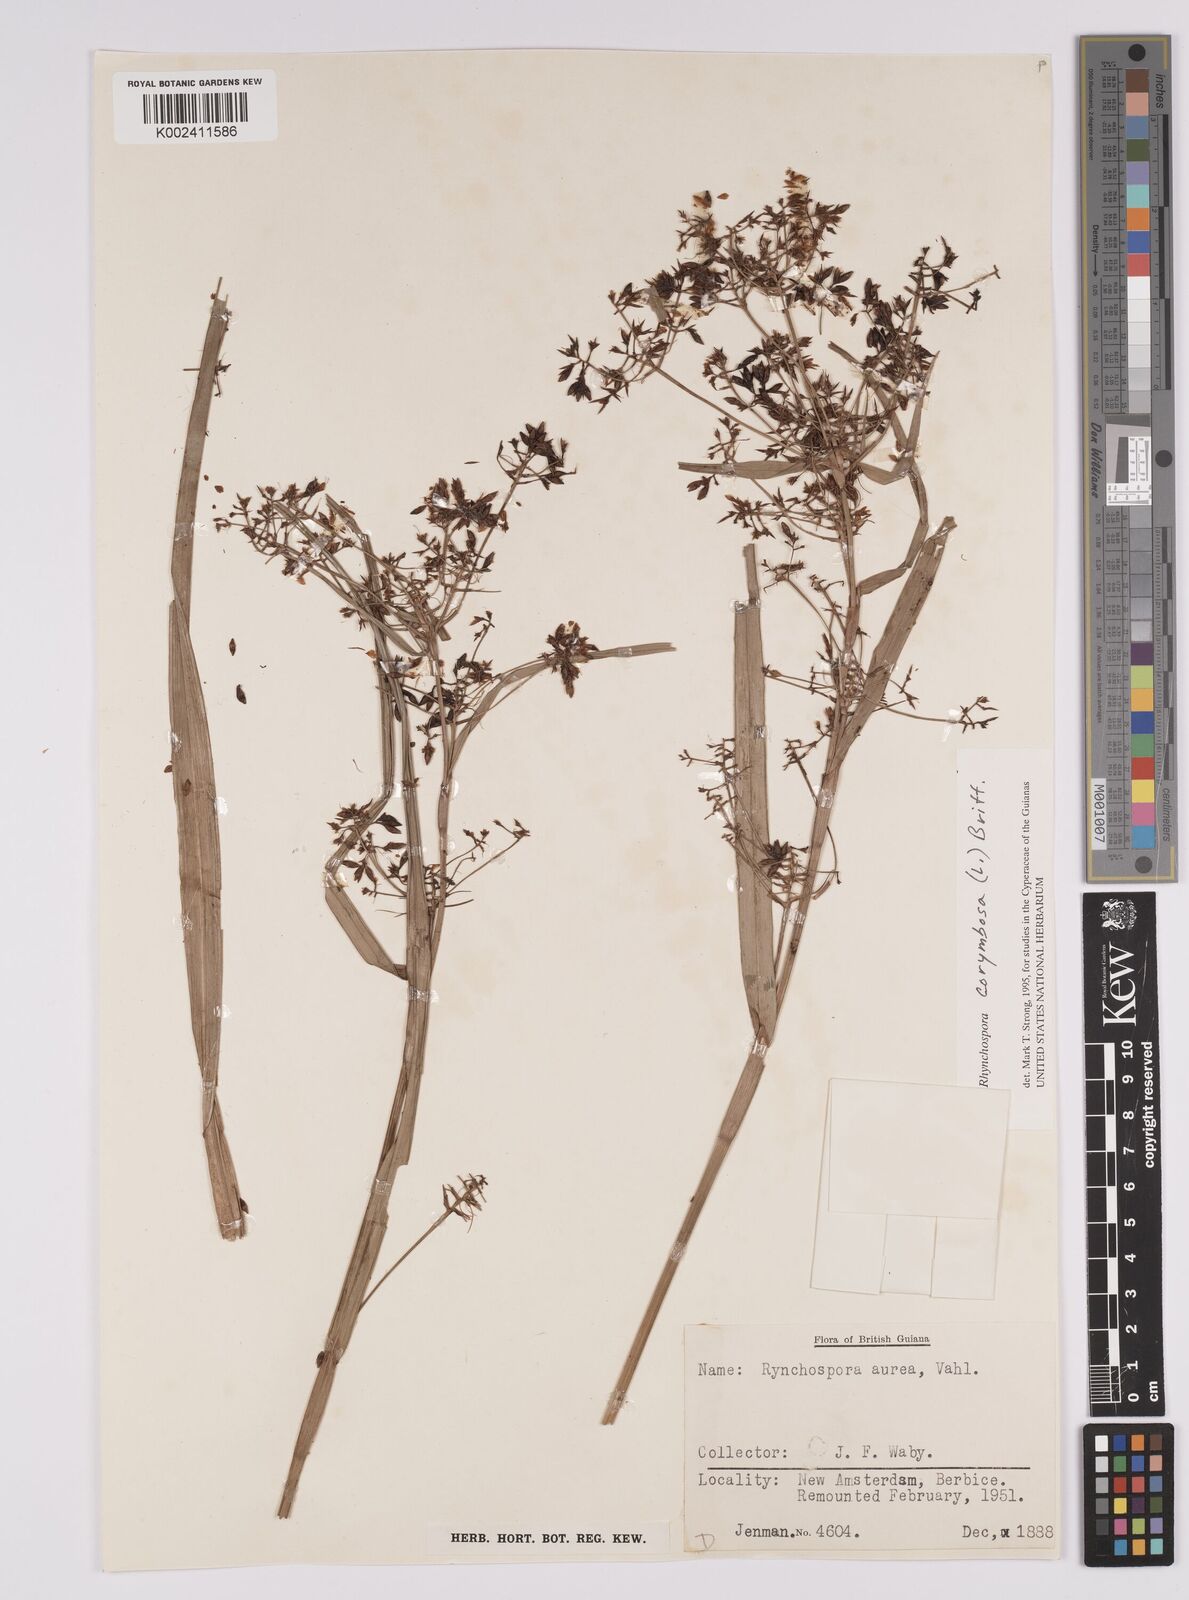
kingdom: Plantae
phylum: Tracheophyta
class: Liliopsida
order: Poales
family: Cyperaceae
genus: Rhynchospora
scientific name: Rhynchospora corymbosa
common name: Golden beak sedge
